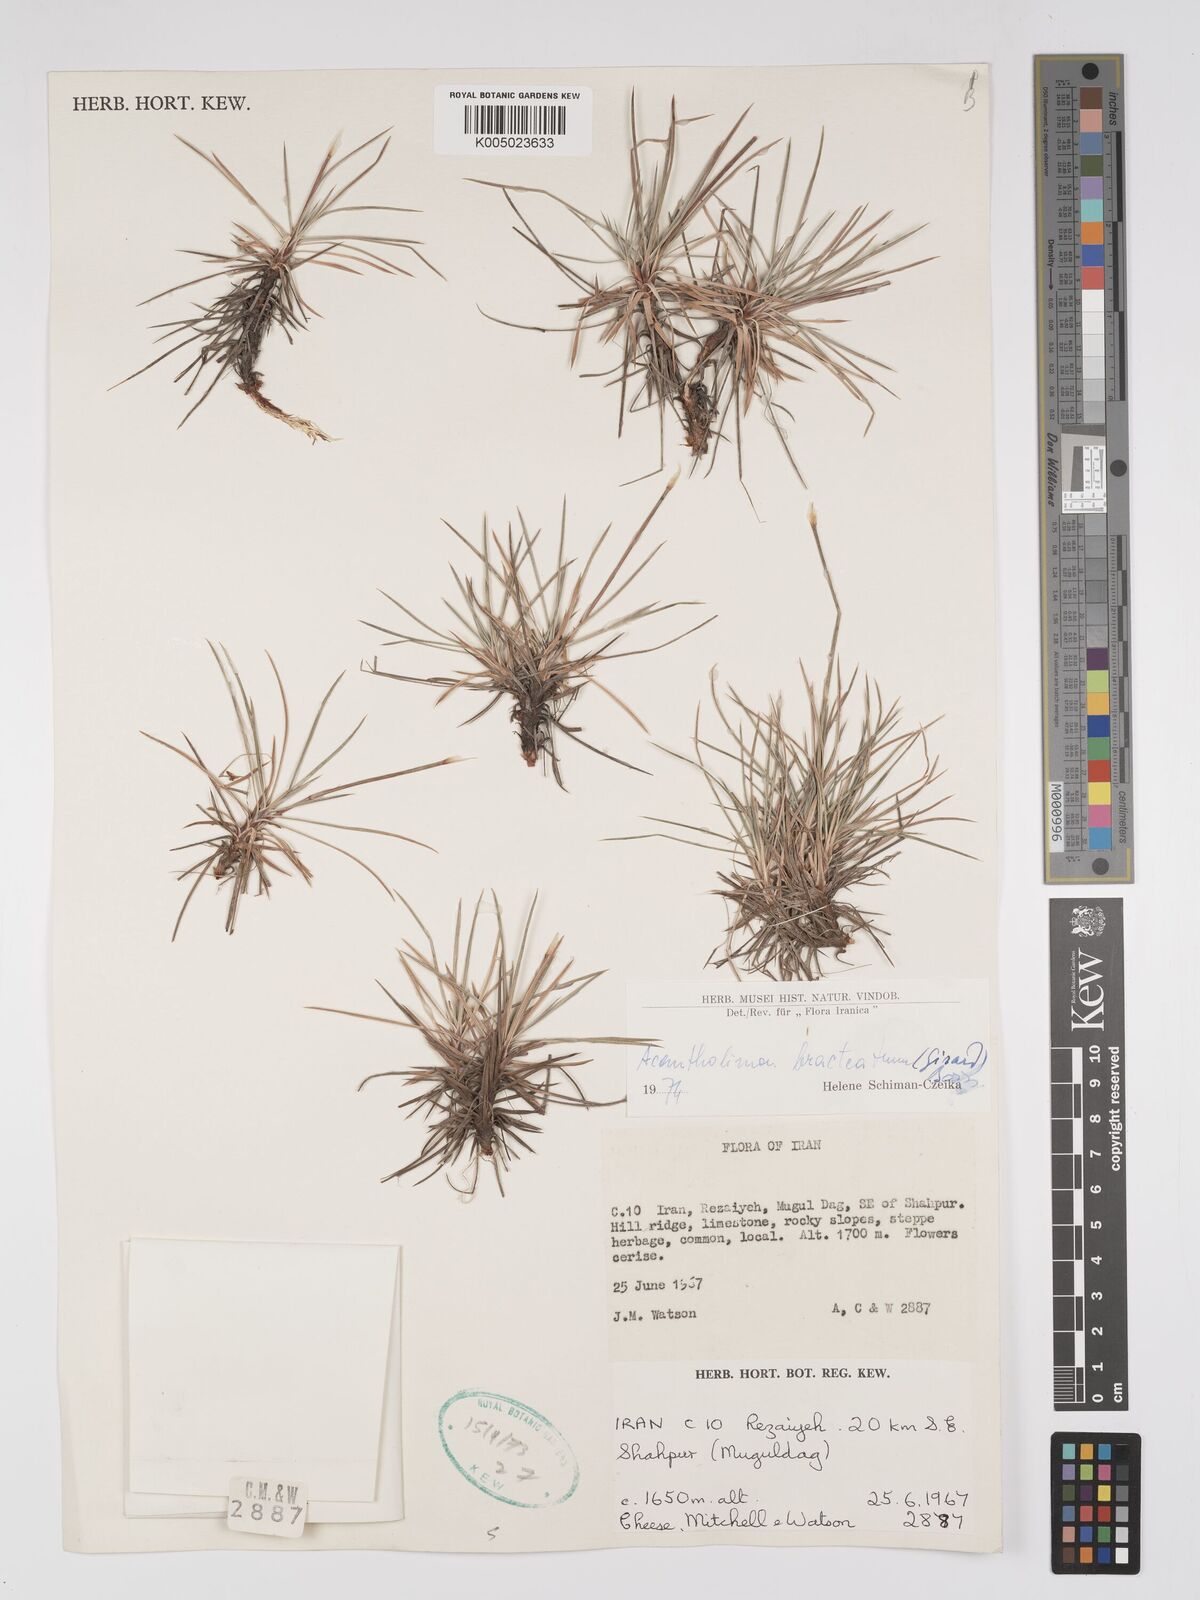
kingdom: Plantae
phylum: Tracheophyta
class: Magnoliopsida
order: Caryophyllales
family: Plumbaginaceae
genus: Acantholimon
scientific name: Acantholimon bracteatum
